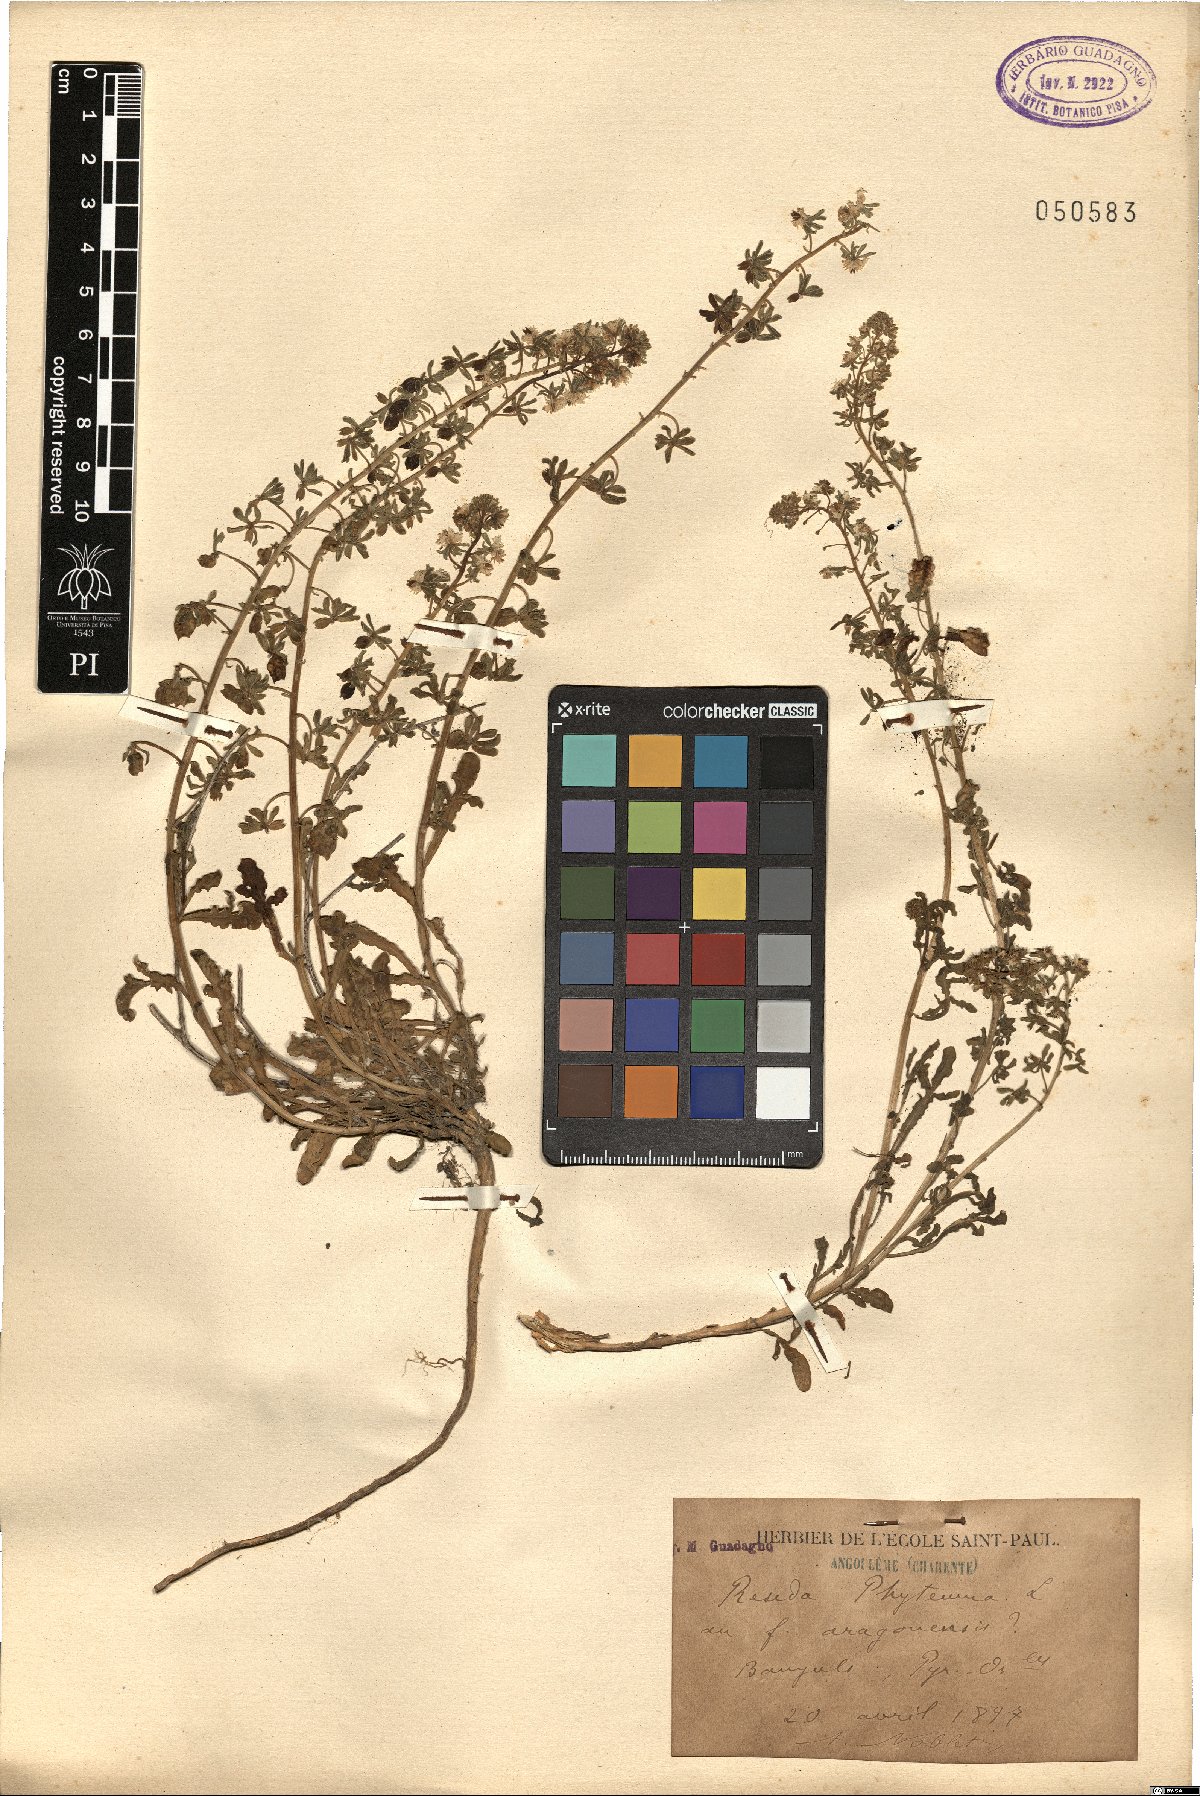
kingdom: Plantae
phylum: Tracheophyta
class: Magnoliopsida
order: Brassicales
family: Resedaceae
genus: Reseda
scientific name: Reseda phyteuma
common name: Corn mignonette
